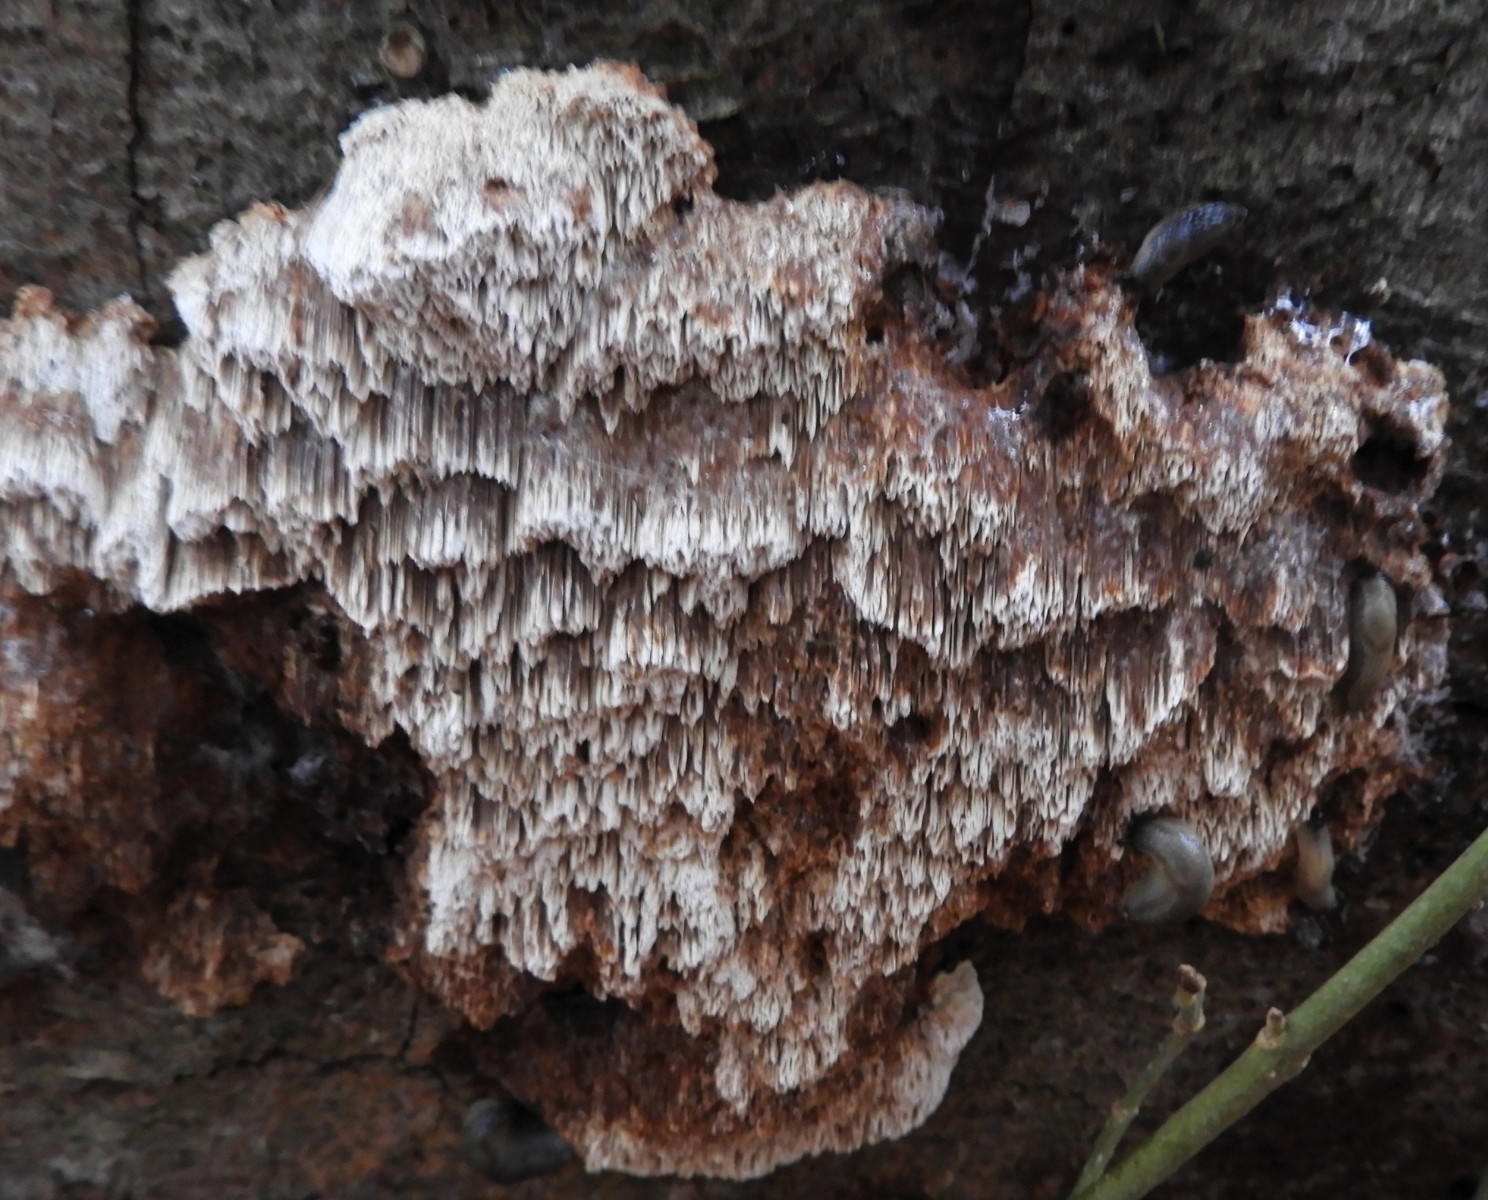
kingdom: Fungi
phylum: Basidiomycota
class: Agaricomycetes
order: Hymenochaetales
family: Hymenochaetaceae
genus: Mensularia
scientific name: Mensularia nodulosa
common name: bøge-spejlporesvamp
